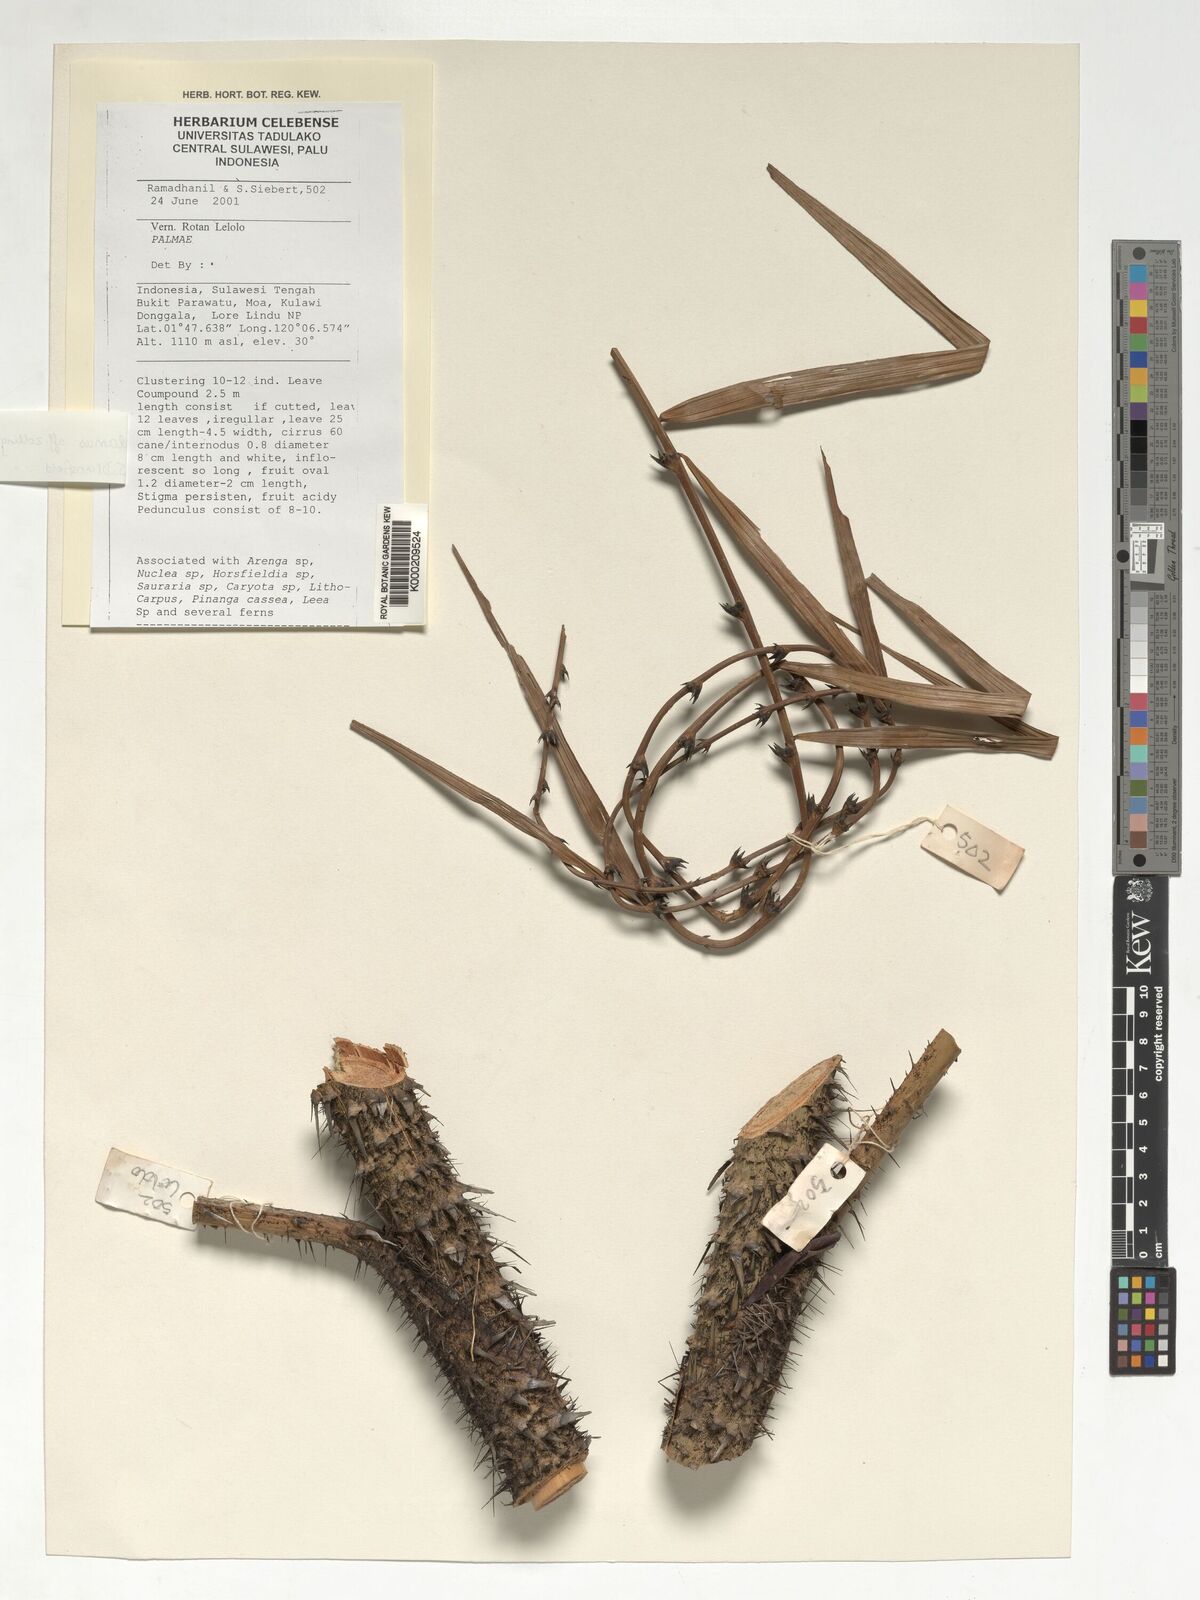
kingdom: Plantae
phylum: Tracheophyta
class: Liliopsida
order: Arecales
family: Arecaceae
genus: Calamus
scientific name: Calamus zollingeri
